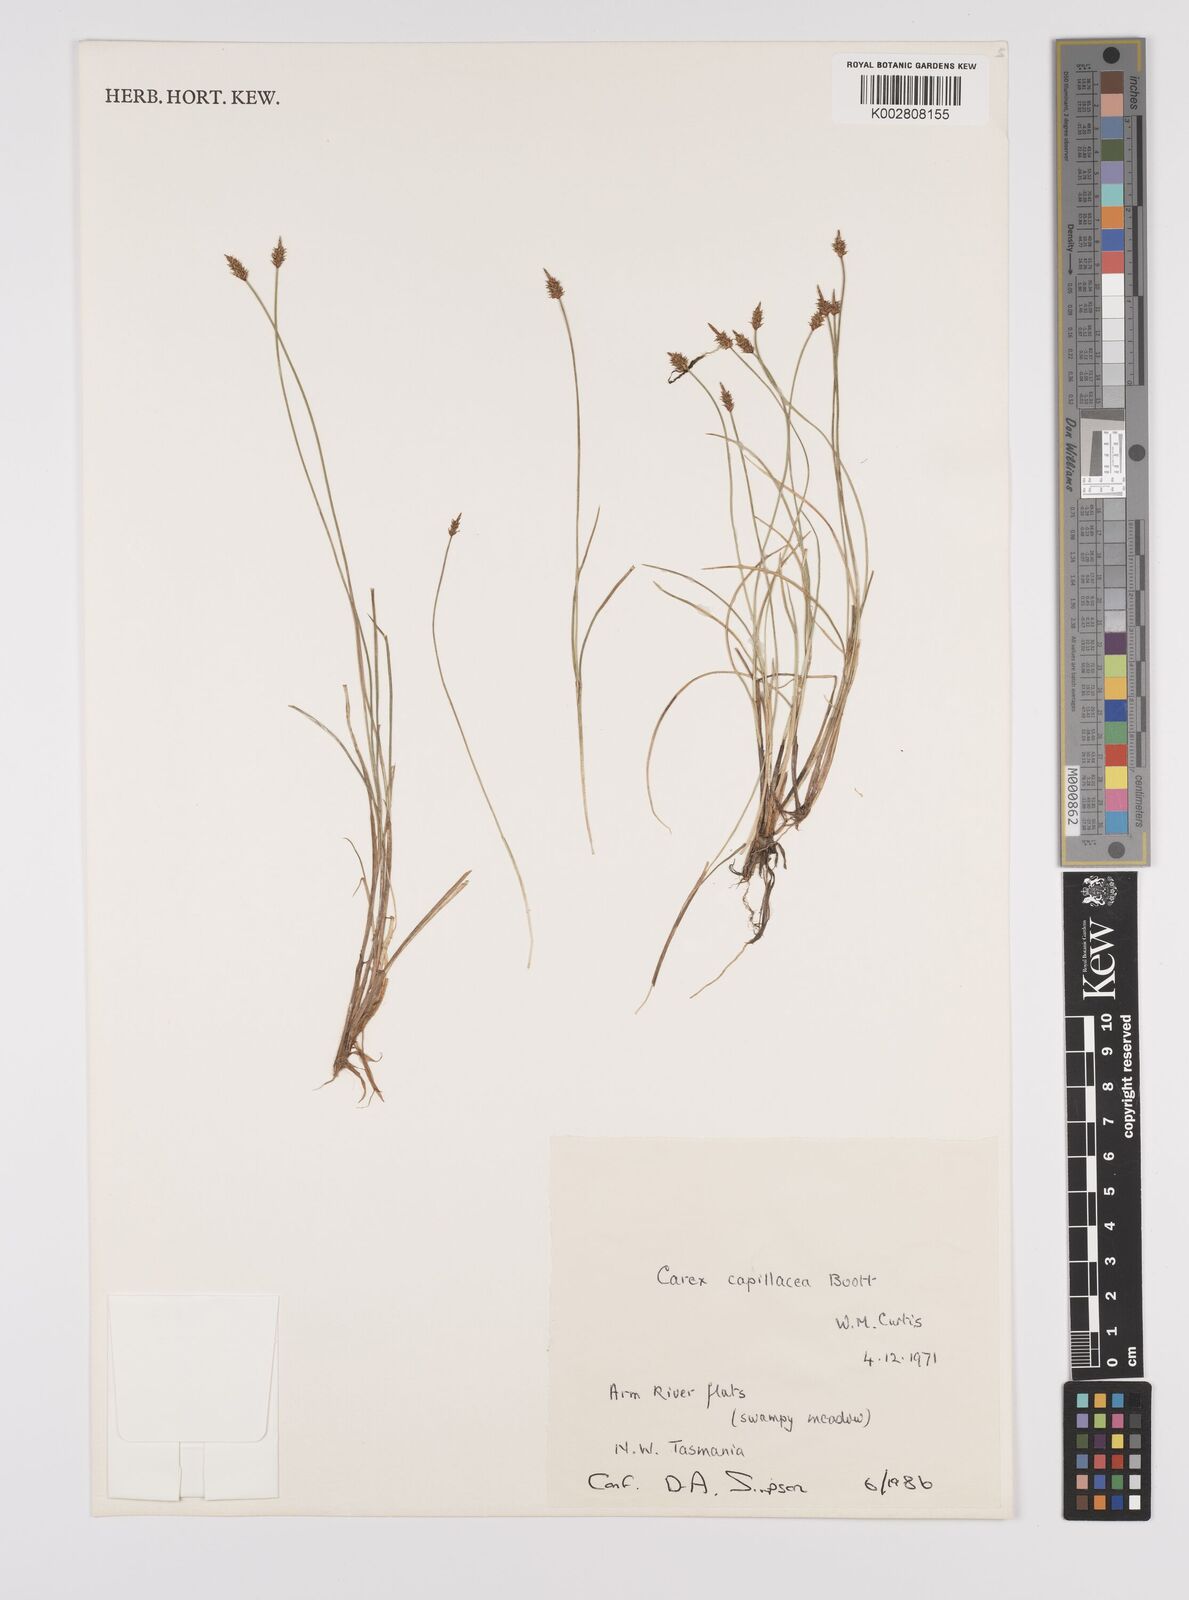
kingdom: Plantae
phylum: Tracheophyta
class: Liliopsida
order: Poales
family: Cyperaceae
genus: Carex
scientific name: Carex capillacea
